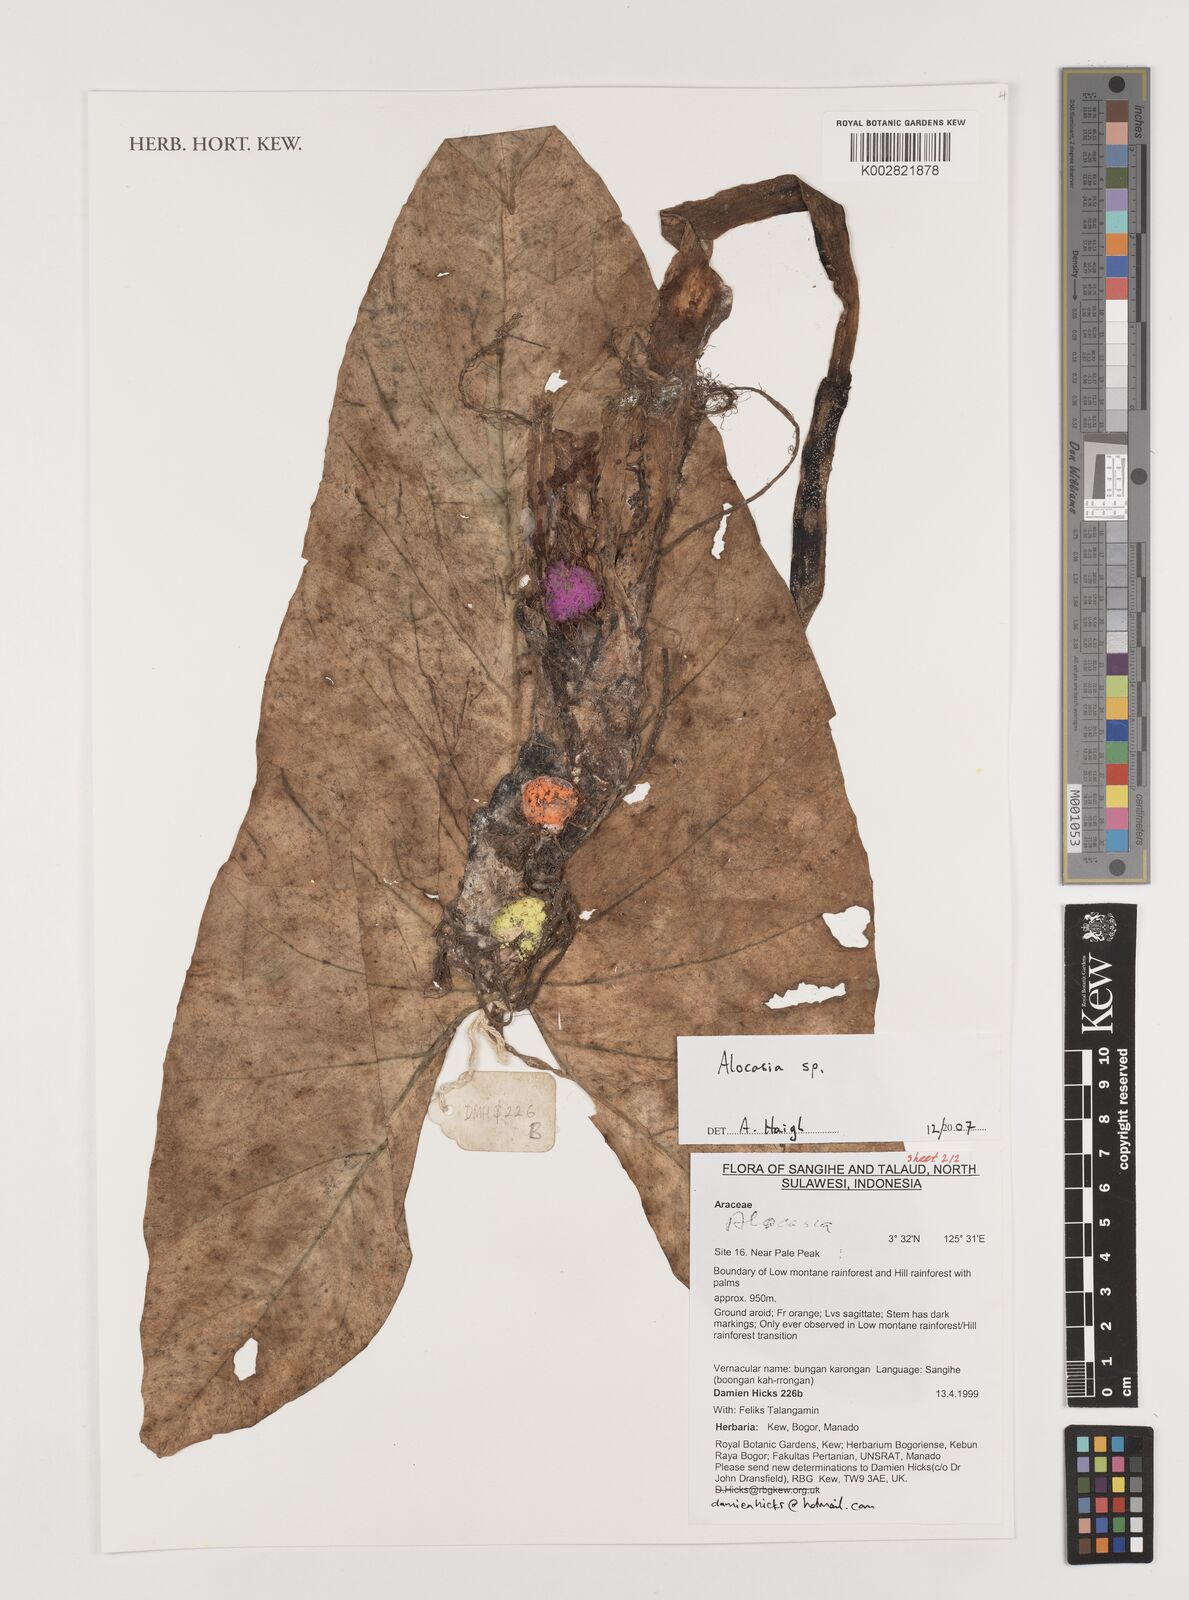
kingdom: Plantae
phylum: Tracheophyta
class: Liliopsida
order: Alismatales
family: Araceae
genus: Alocasia
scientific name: Alocasia
